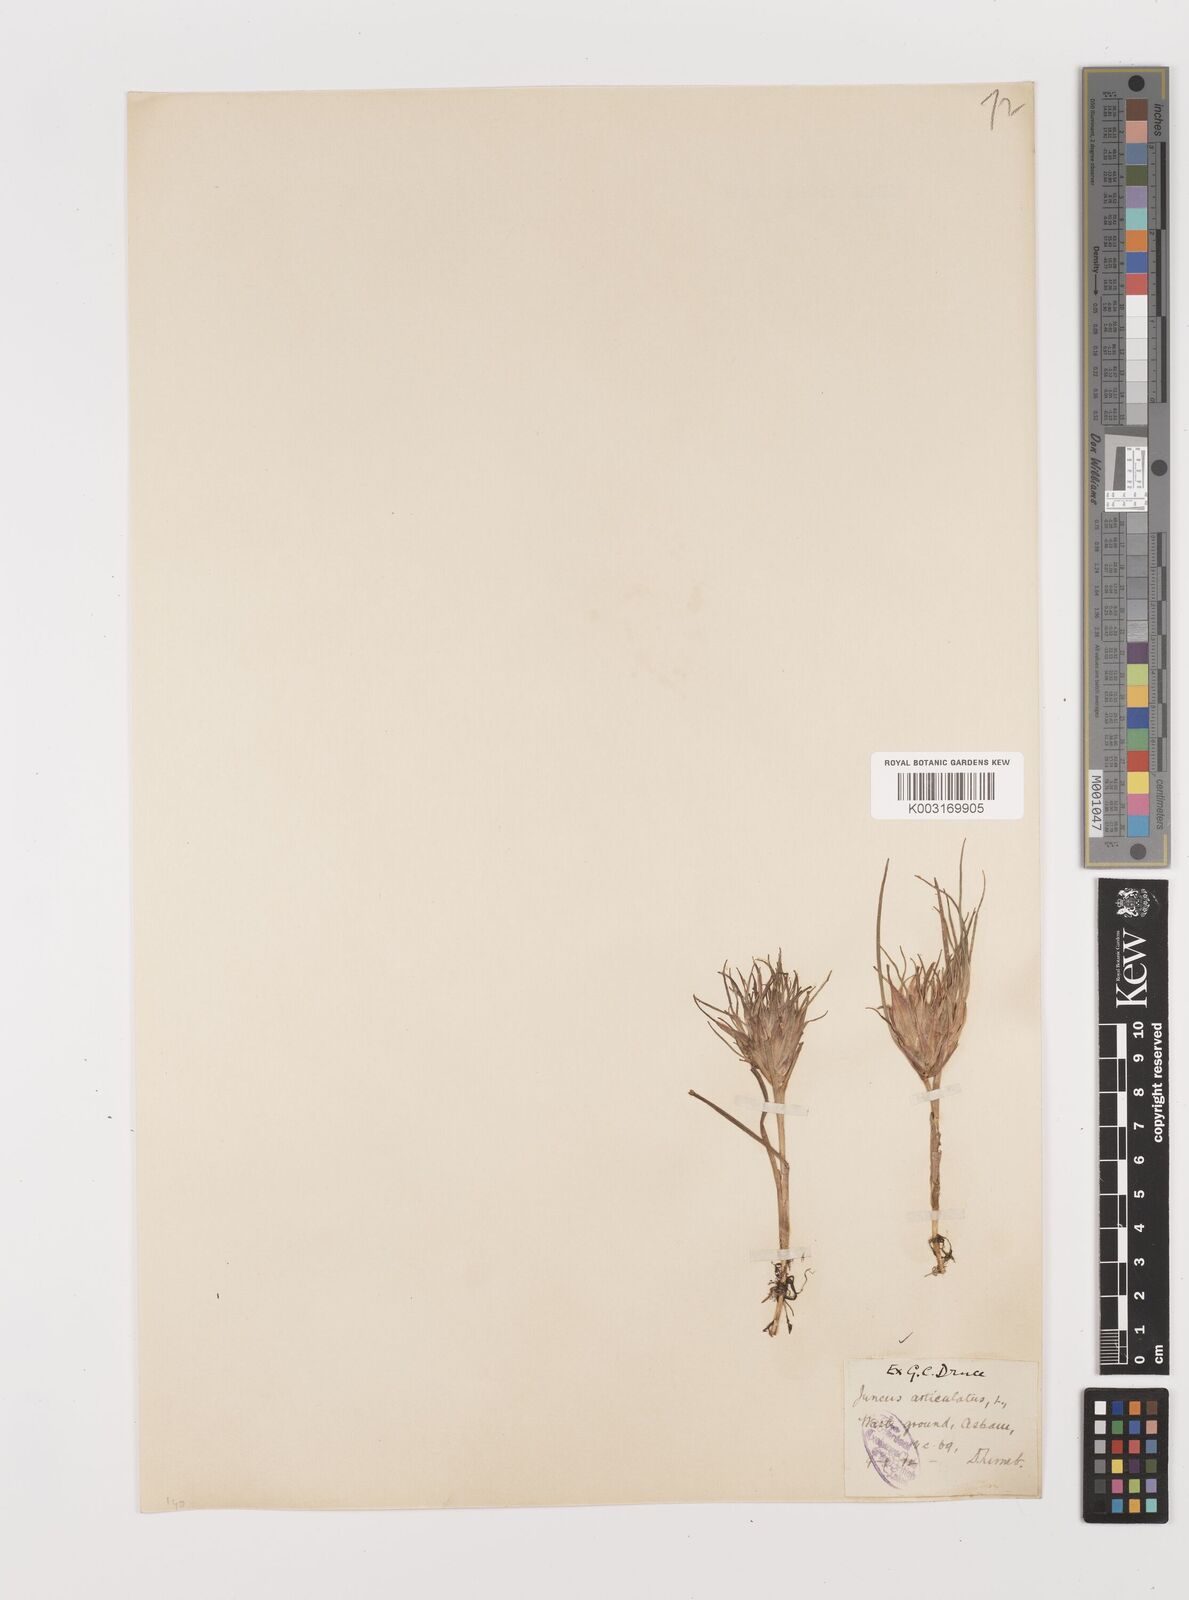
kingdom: Plantae
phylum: Tracheophyta
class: Liliopsida
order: Poales
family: Juncaceae
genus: Juncus
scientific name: Juncus articulatus
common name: Jointed rush
